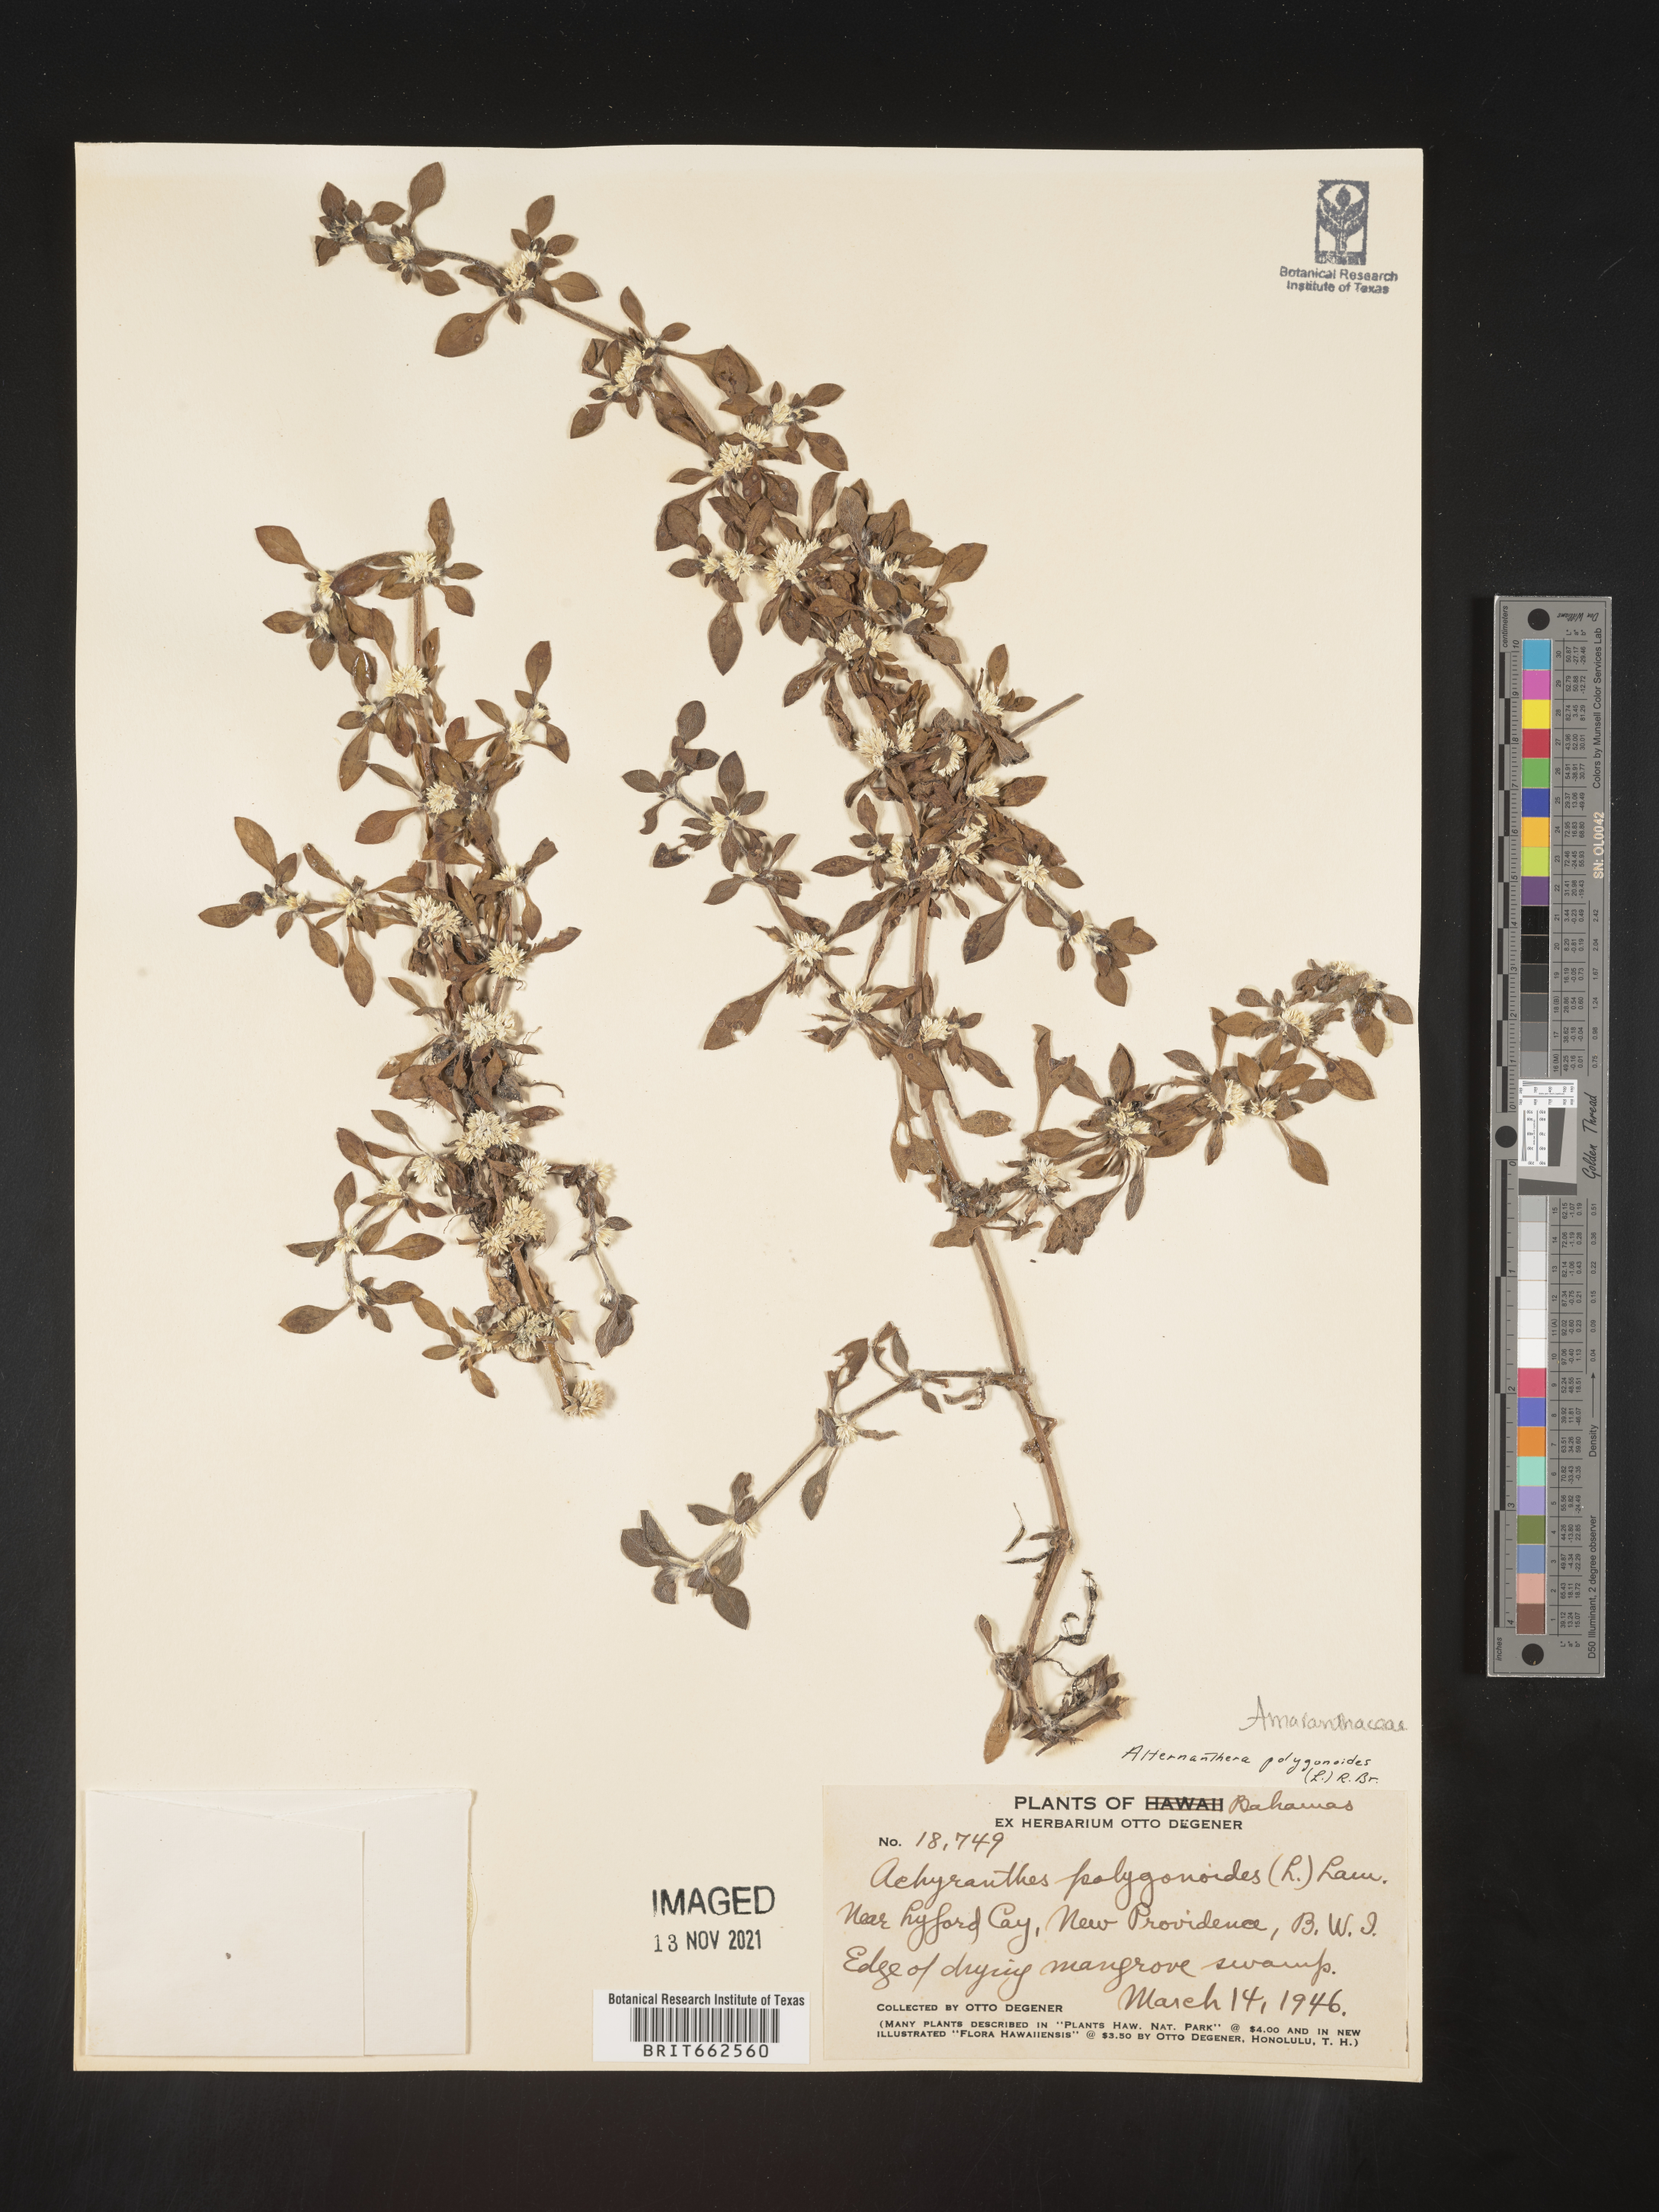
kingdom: Plantae
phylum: Tracheophyta
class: Magnoliopsida
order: Caryophyllales
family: Amaranthaceae
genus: Alternanthera
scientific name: Alternanthera
